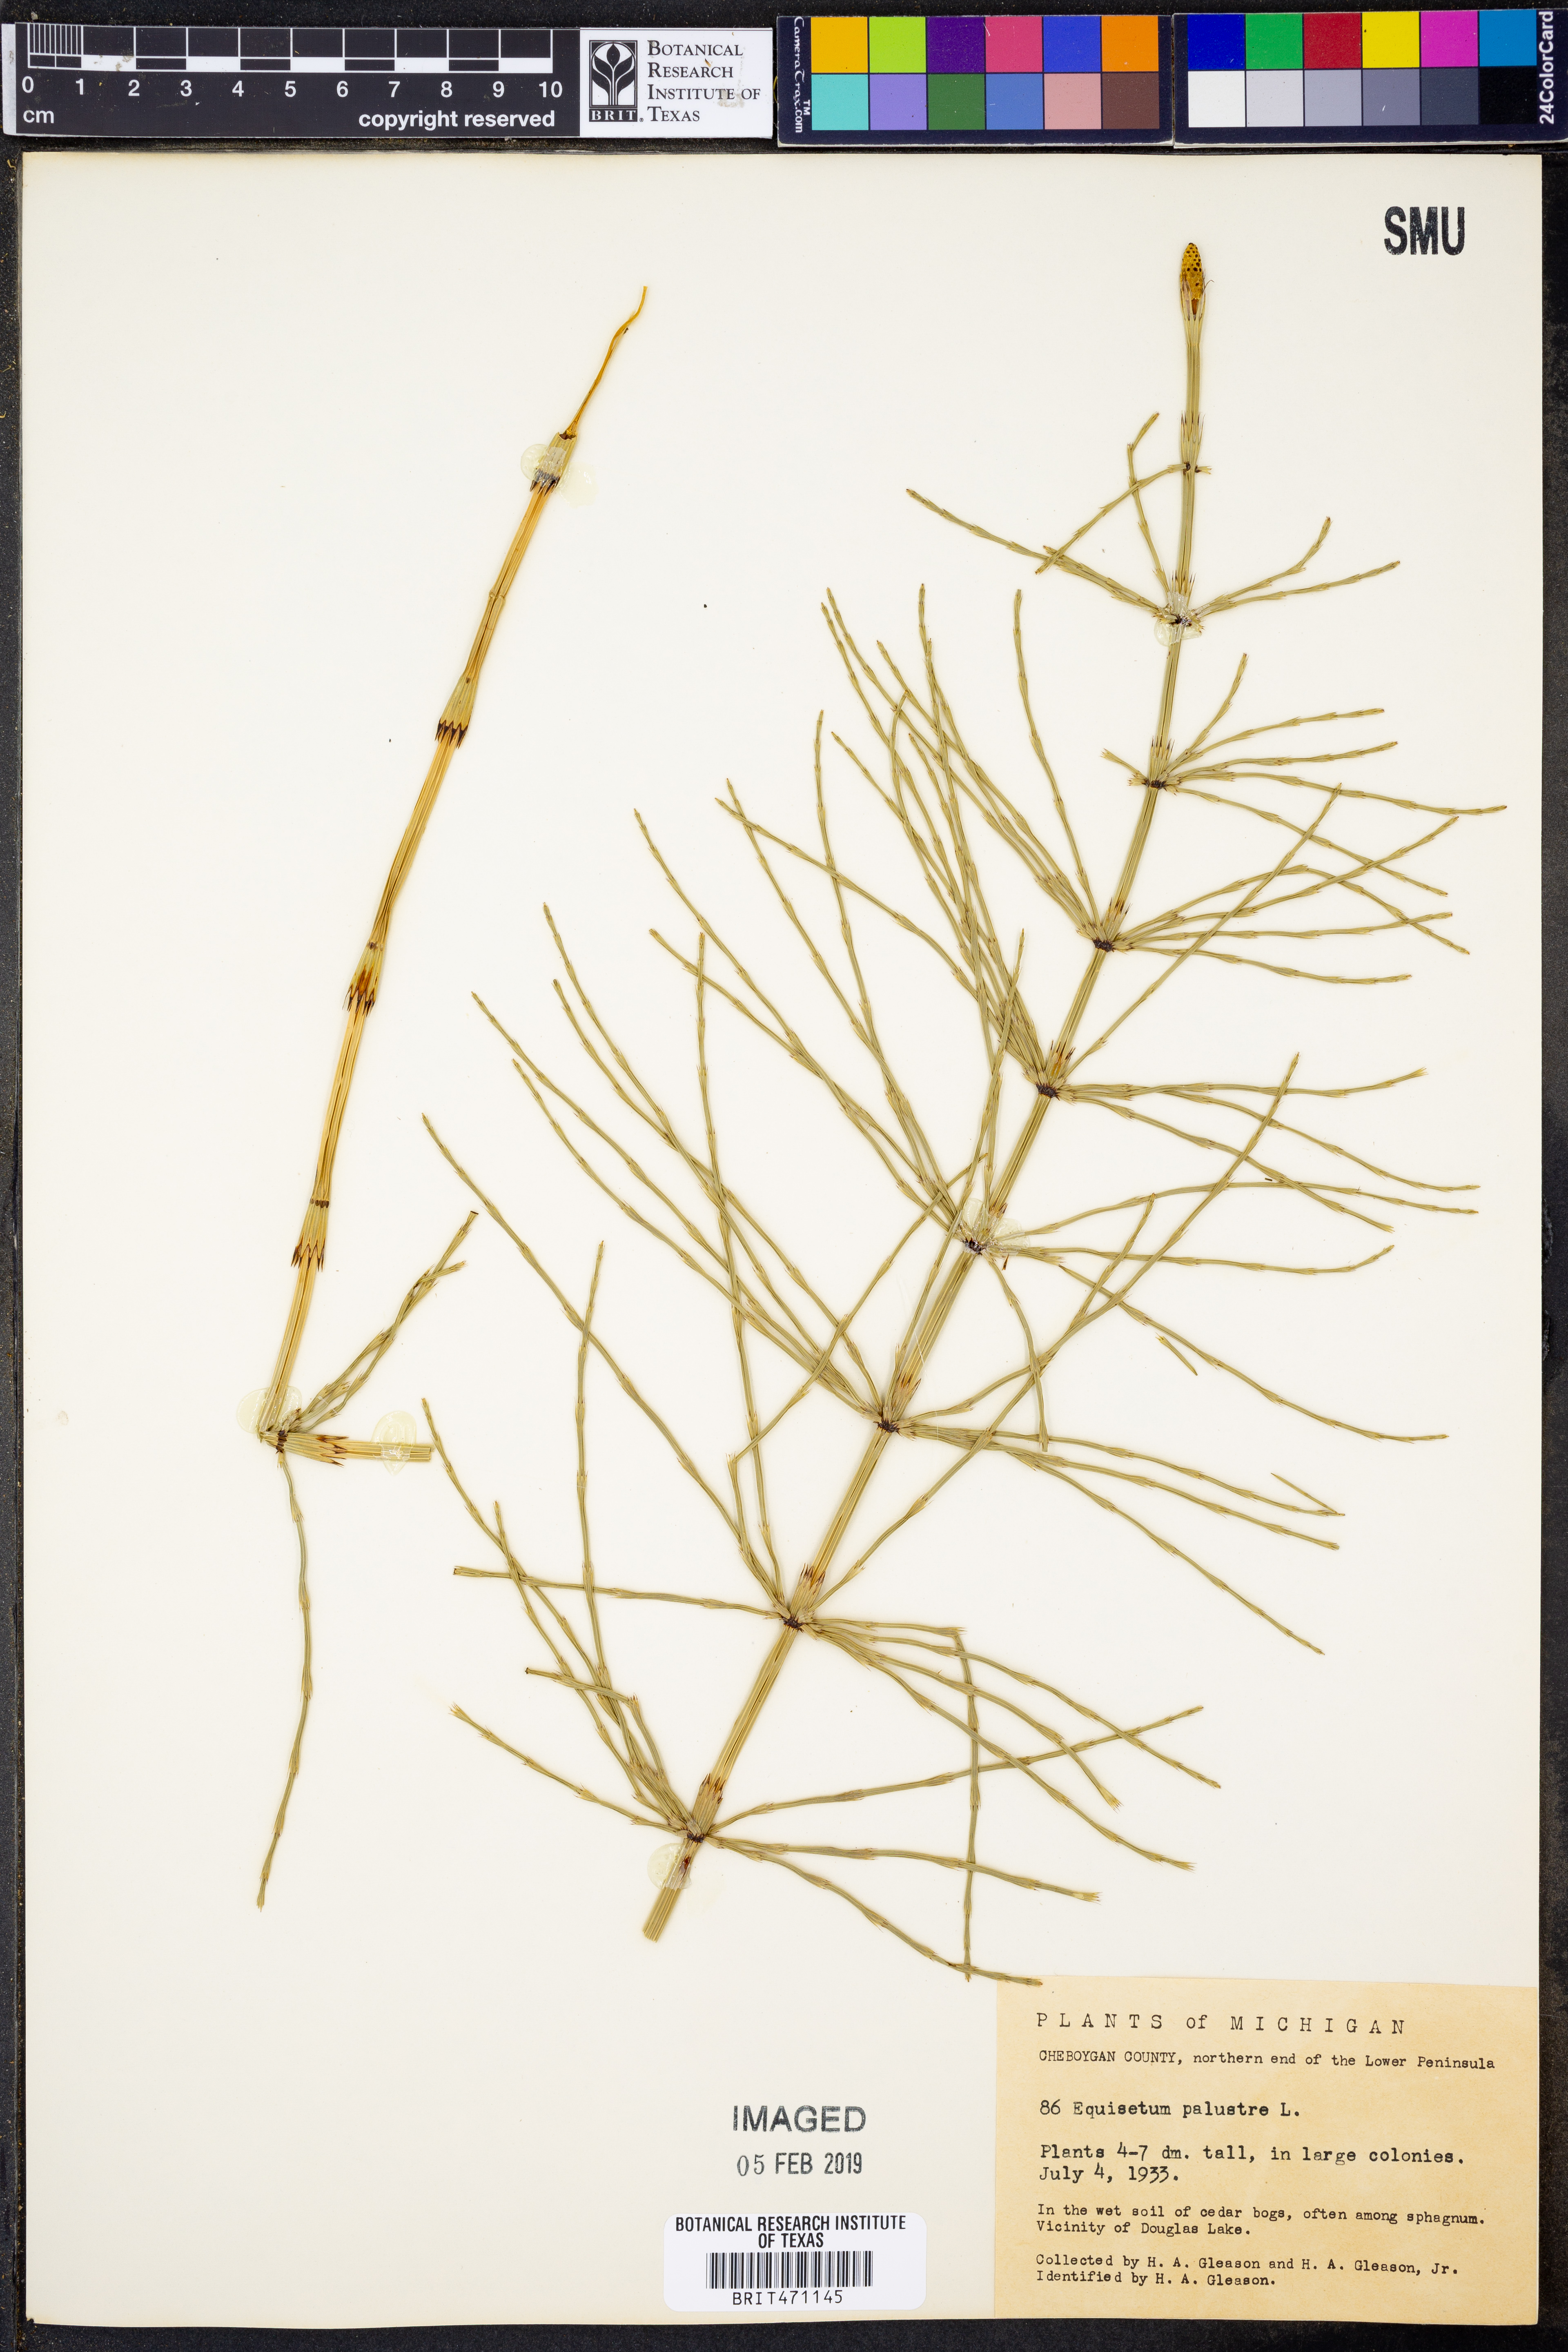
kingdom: Plantae
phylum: Tracheophyta
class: Polypodiopsida
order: Equisetales
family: Equisetaceae
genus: Equisetum
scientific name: Equisetum palustre
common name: Marsh horsetail
